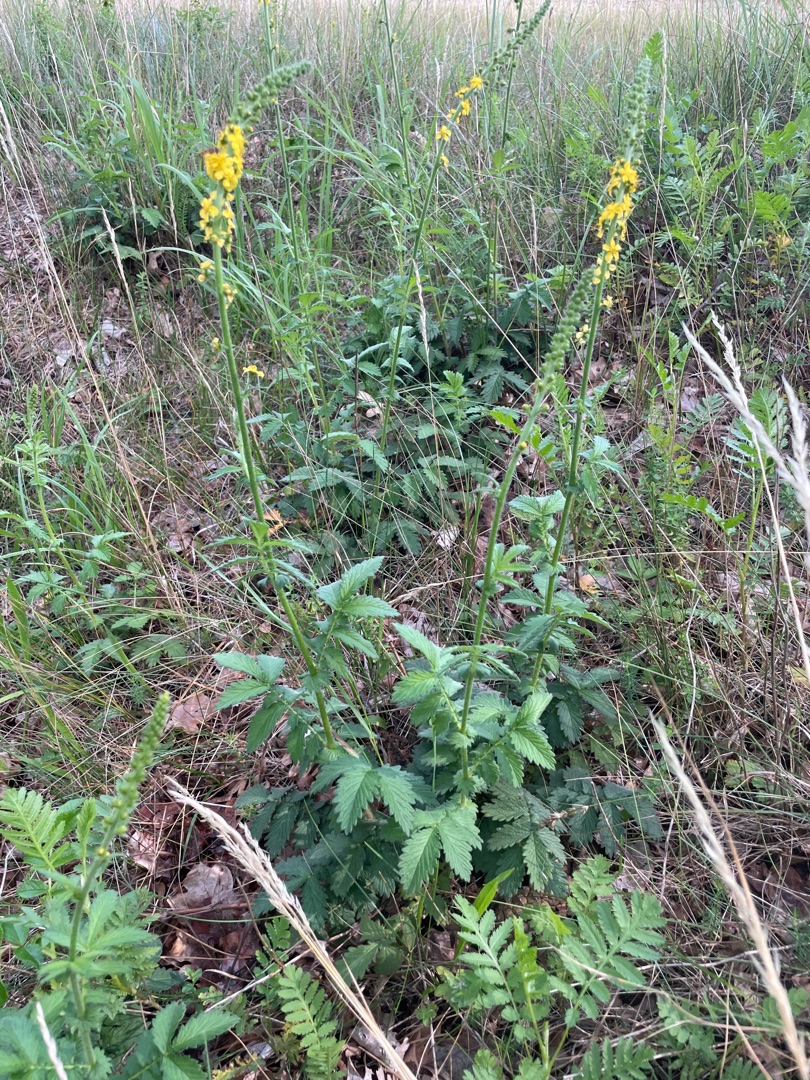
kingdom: Plantae
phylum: Tracheophyta
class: Magnoliopsida
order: Rosales
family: Rosaceae
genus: Agrimonia
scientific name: Agrimonia
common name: Agermåneslægten
